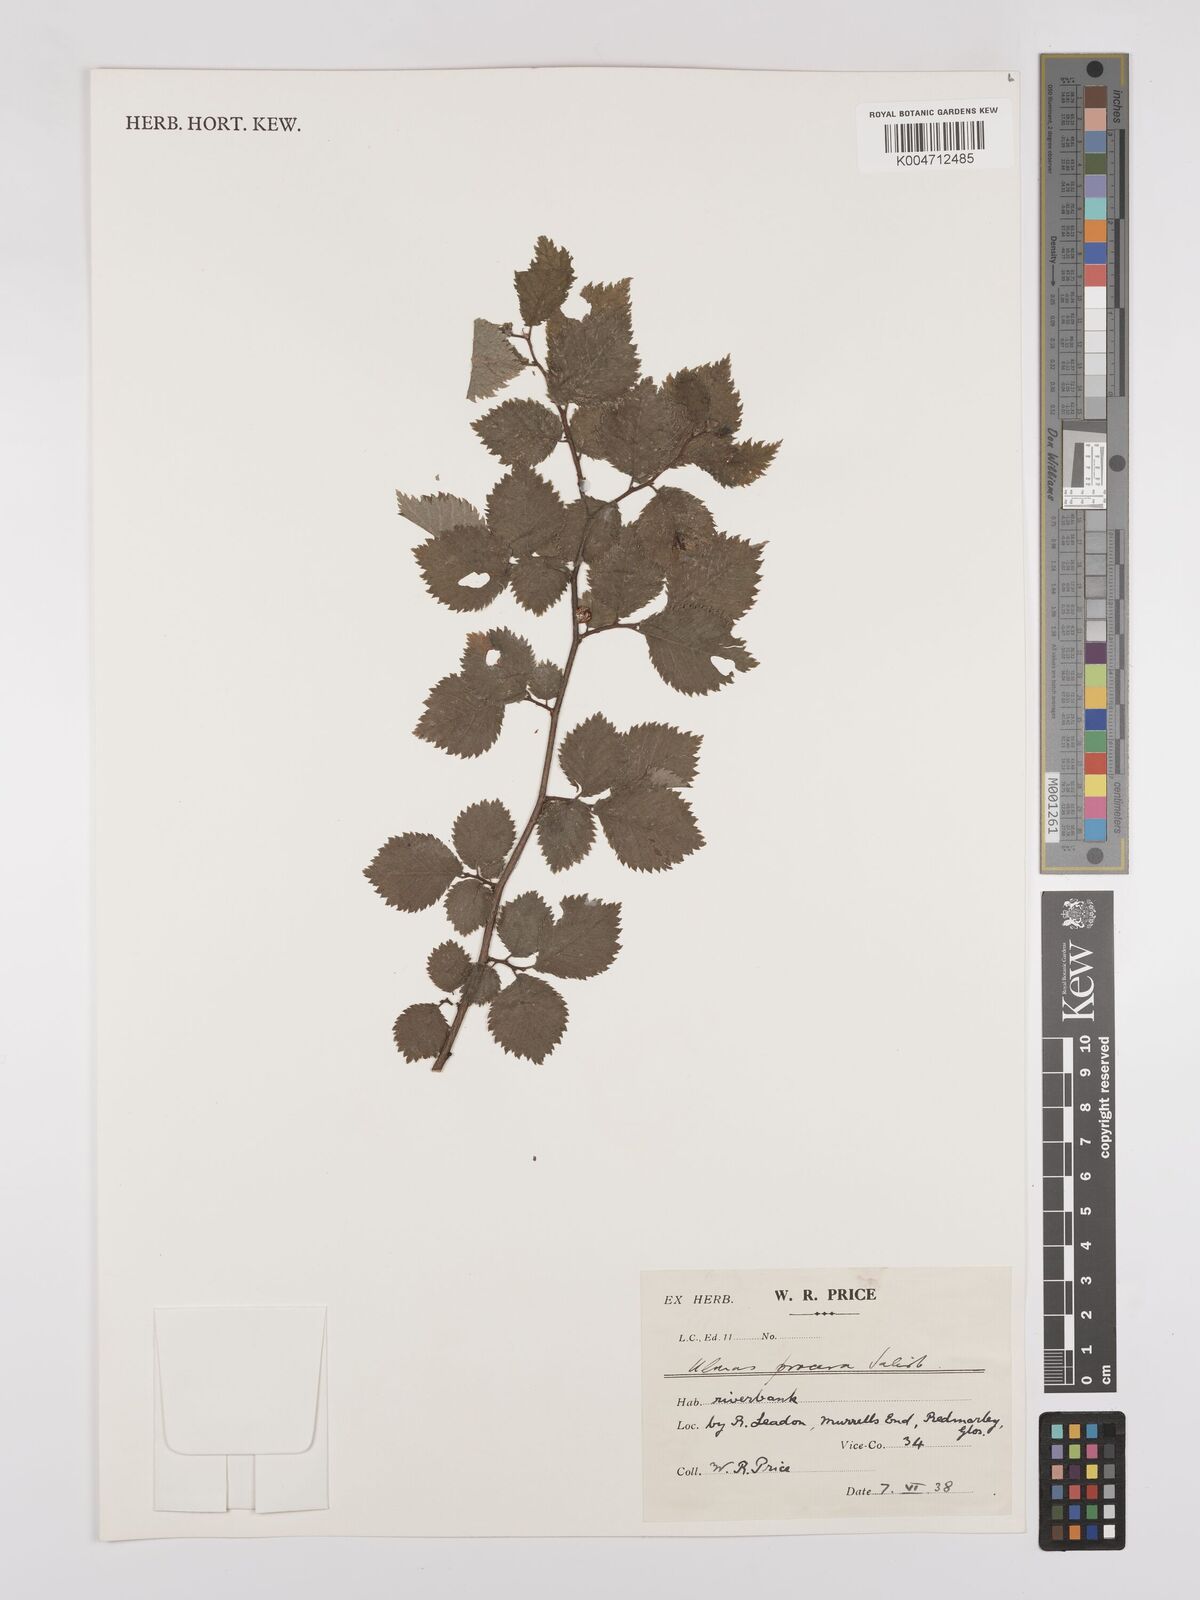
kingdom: Plantae
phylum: Tracheophyta
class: Magnoliopsida
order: Rosales
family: Ulmaceae
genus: Ulmus
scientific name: Ulmus minor
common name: Small-leaved elm
